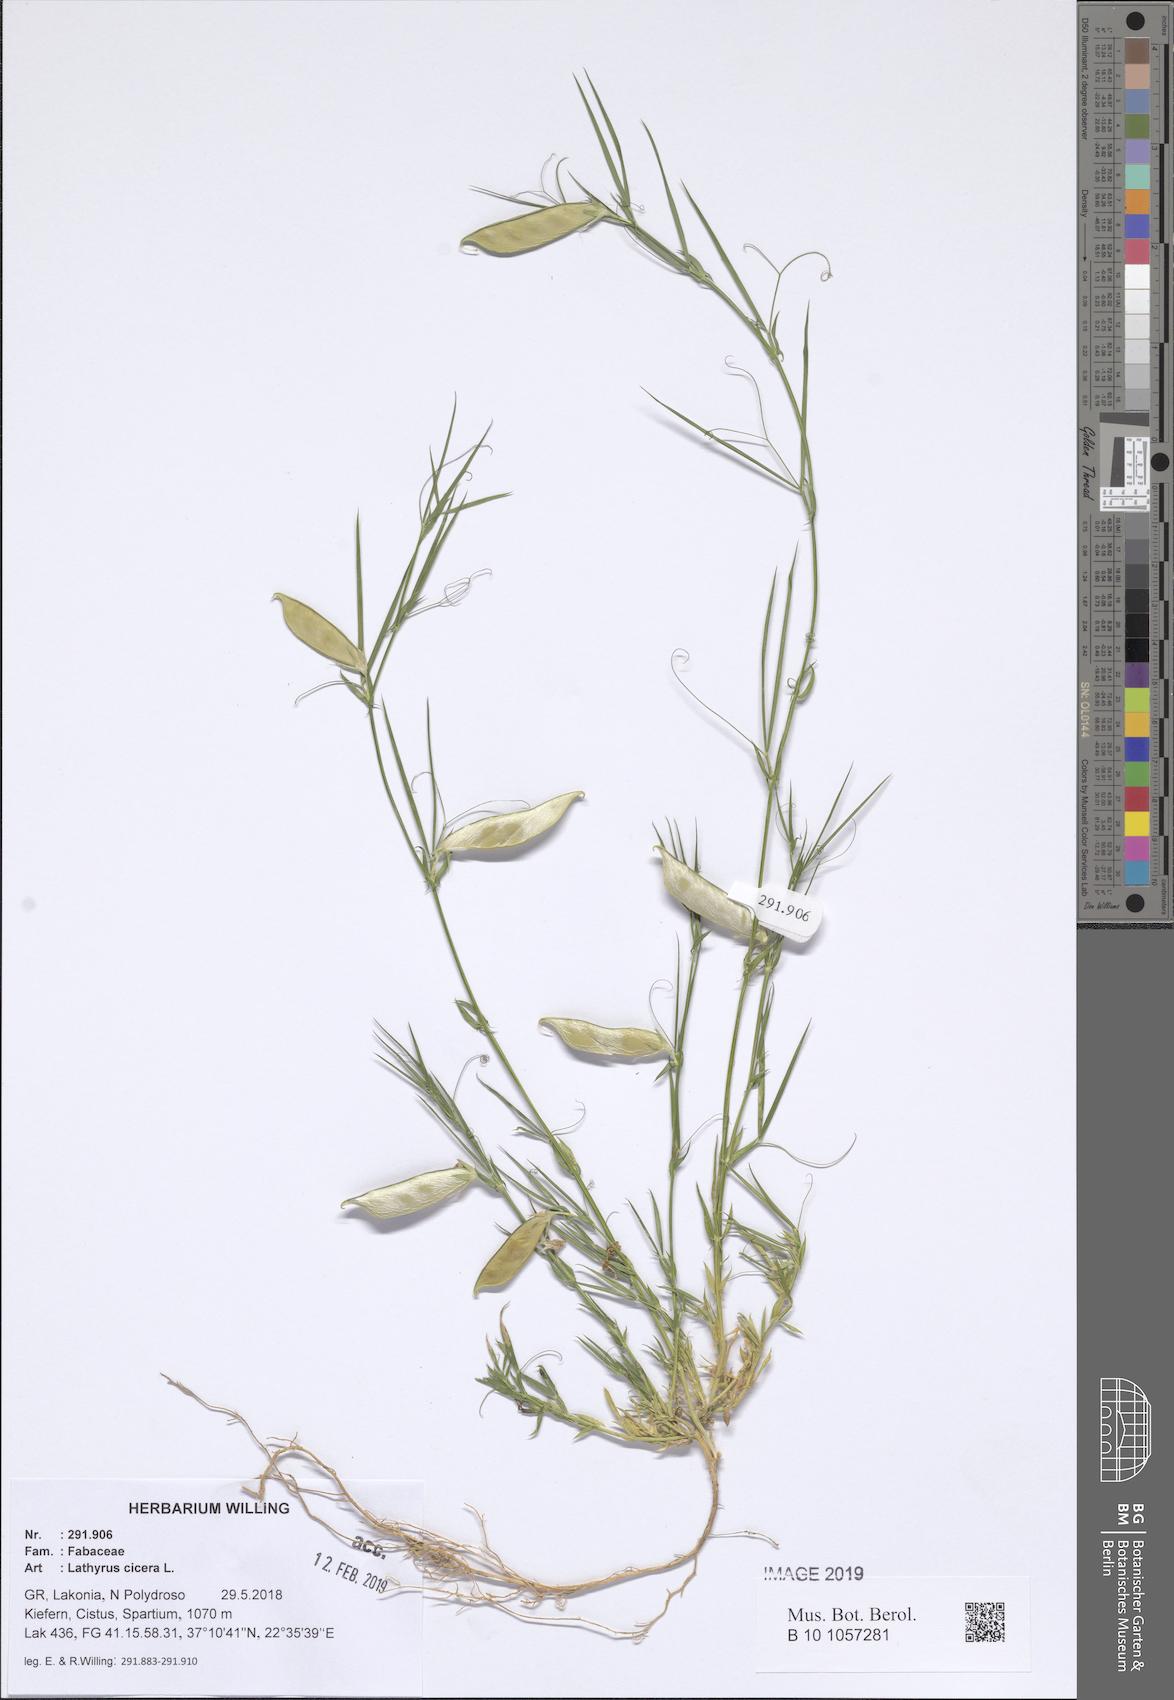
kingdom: Plantae
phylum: Tracheophyta
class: Magnoliopsida
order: Fabales
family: Fabaceae
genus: Lathyrus
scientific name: Lathyrus cicera
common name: Red vetchling
